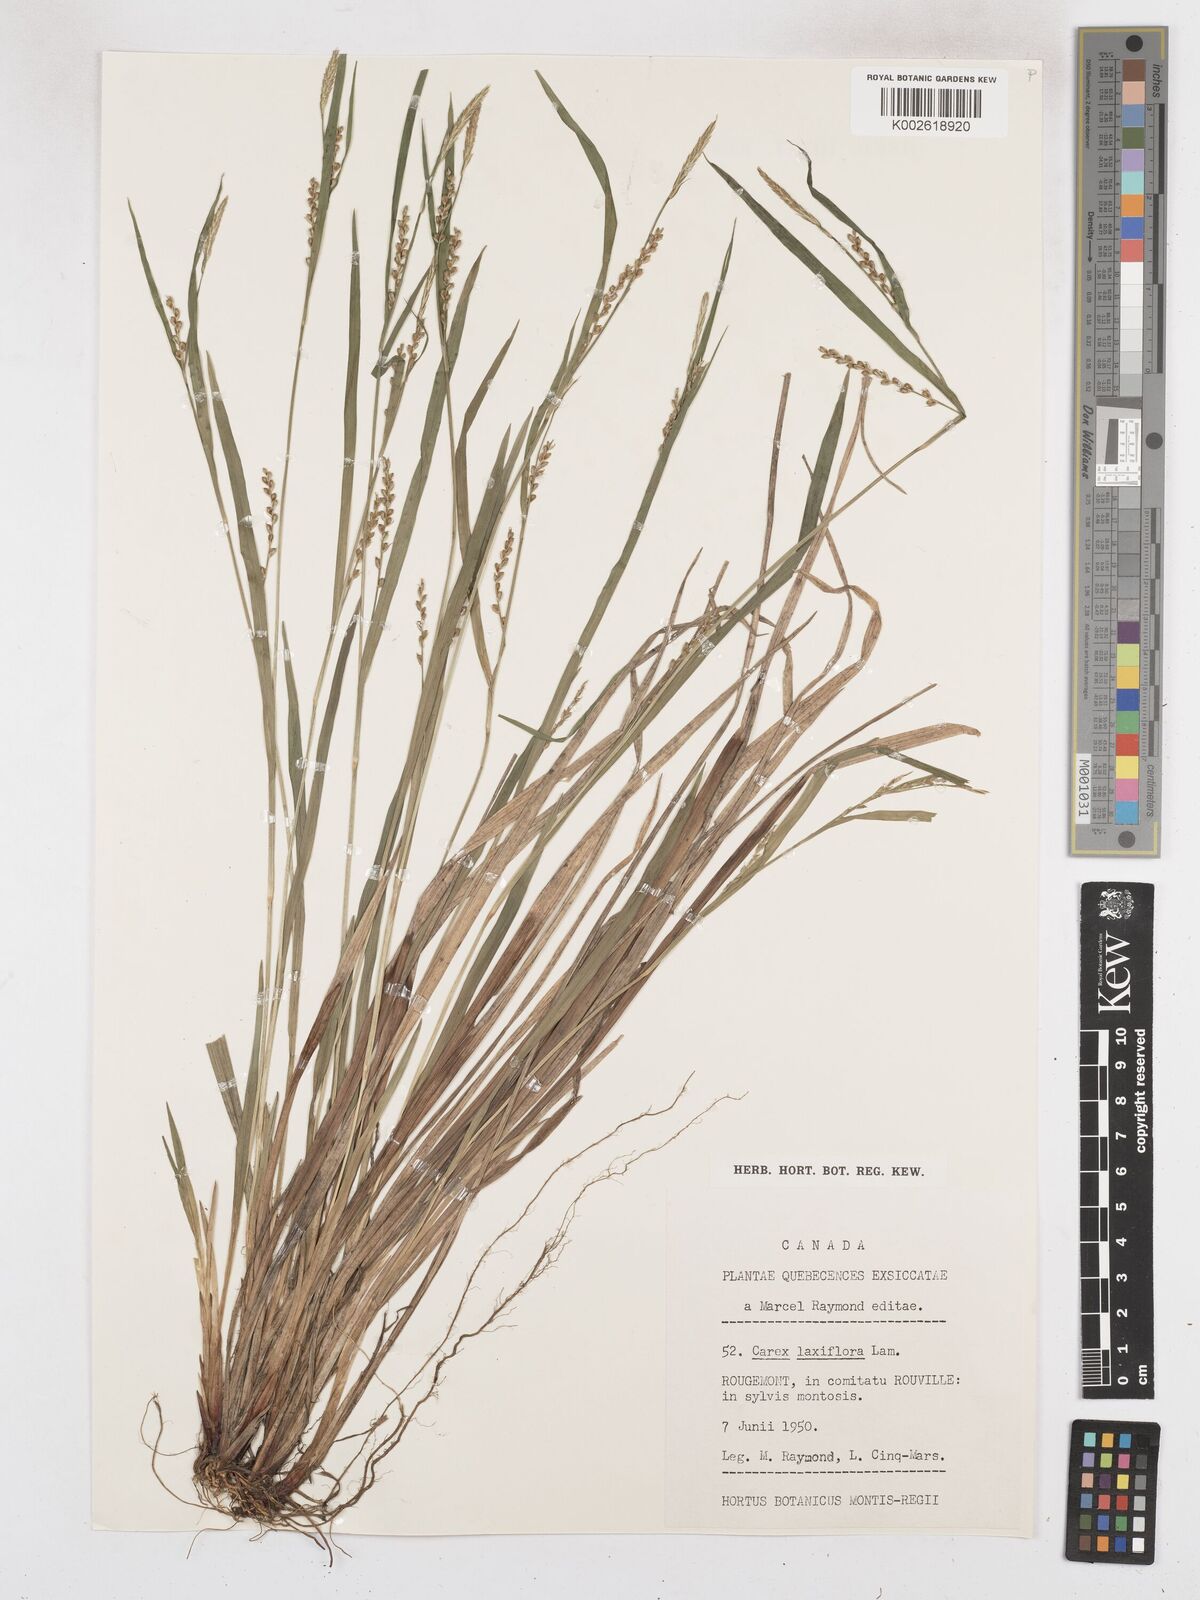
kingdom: Plantae
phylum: Tracheophyta
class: Liliopsida
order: Poales
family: Cyperaceae
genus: Carex
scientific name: Carex laxiflora
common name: Beech wood sedge
